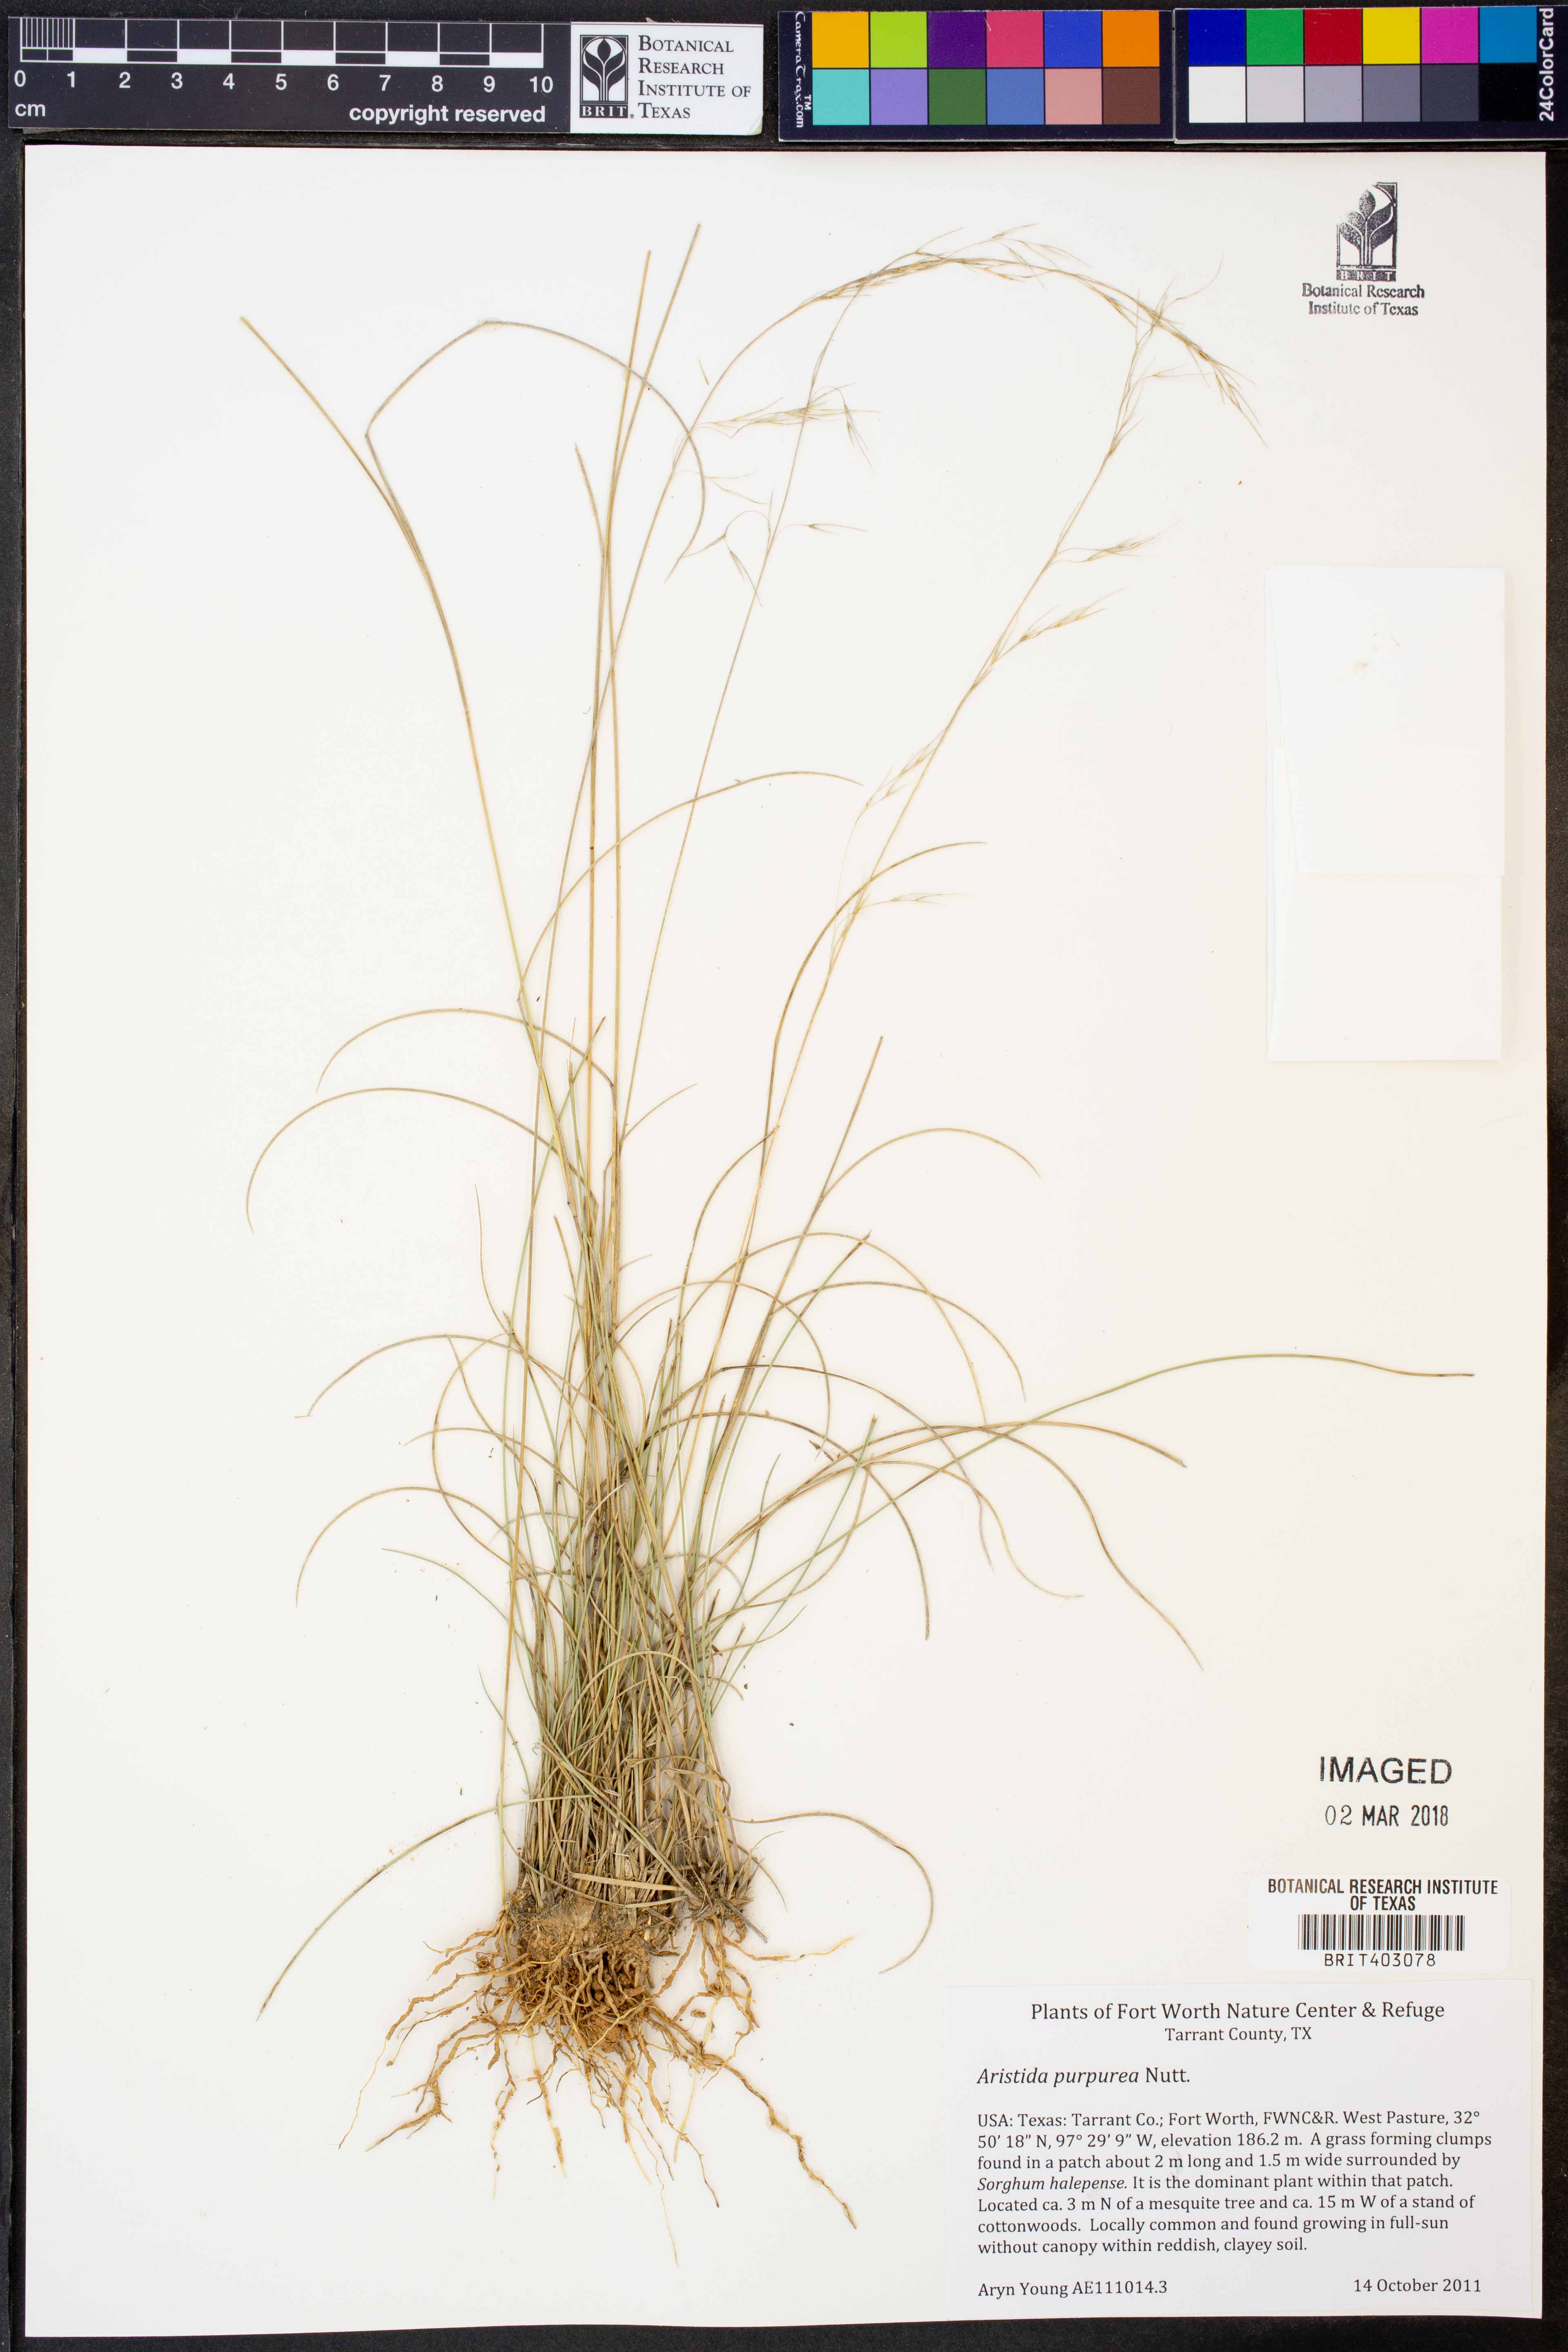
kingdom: Plantae
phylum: Tracheophyta
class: Liliopsida
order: Poales
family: Poaceae
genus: Aristida
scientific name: Aristida purpurea
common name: Purple threeawn
